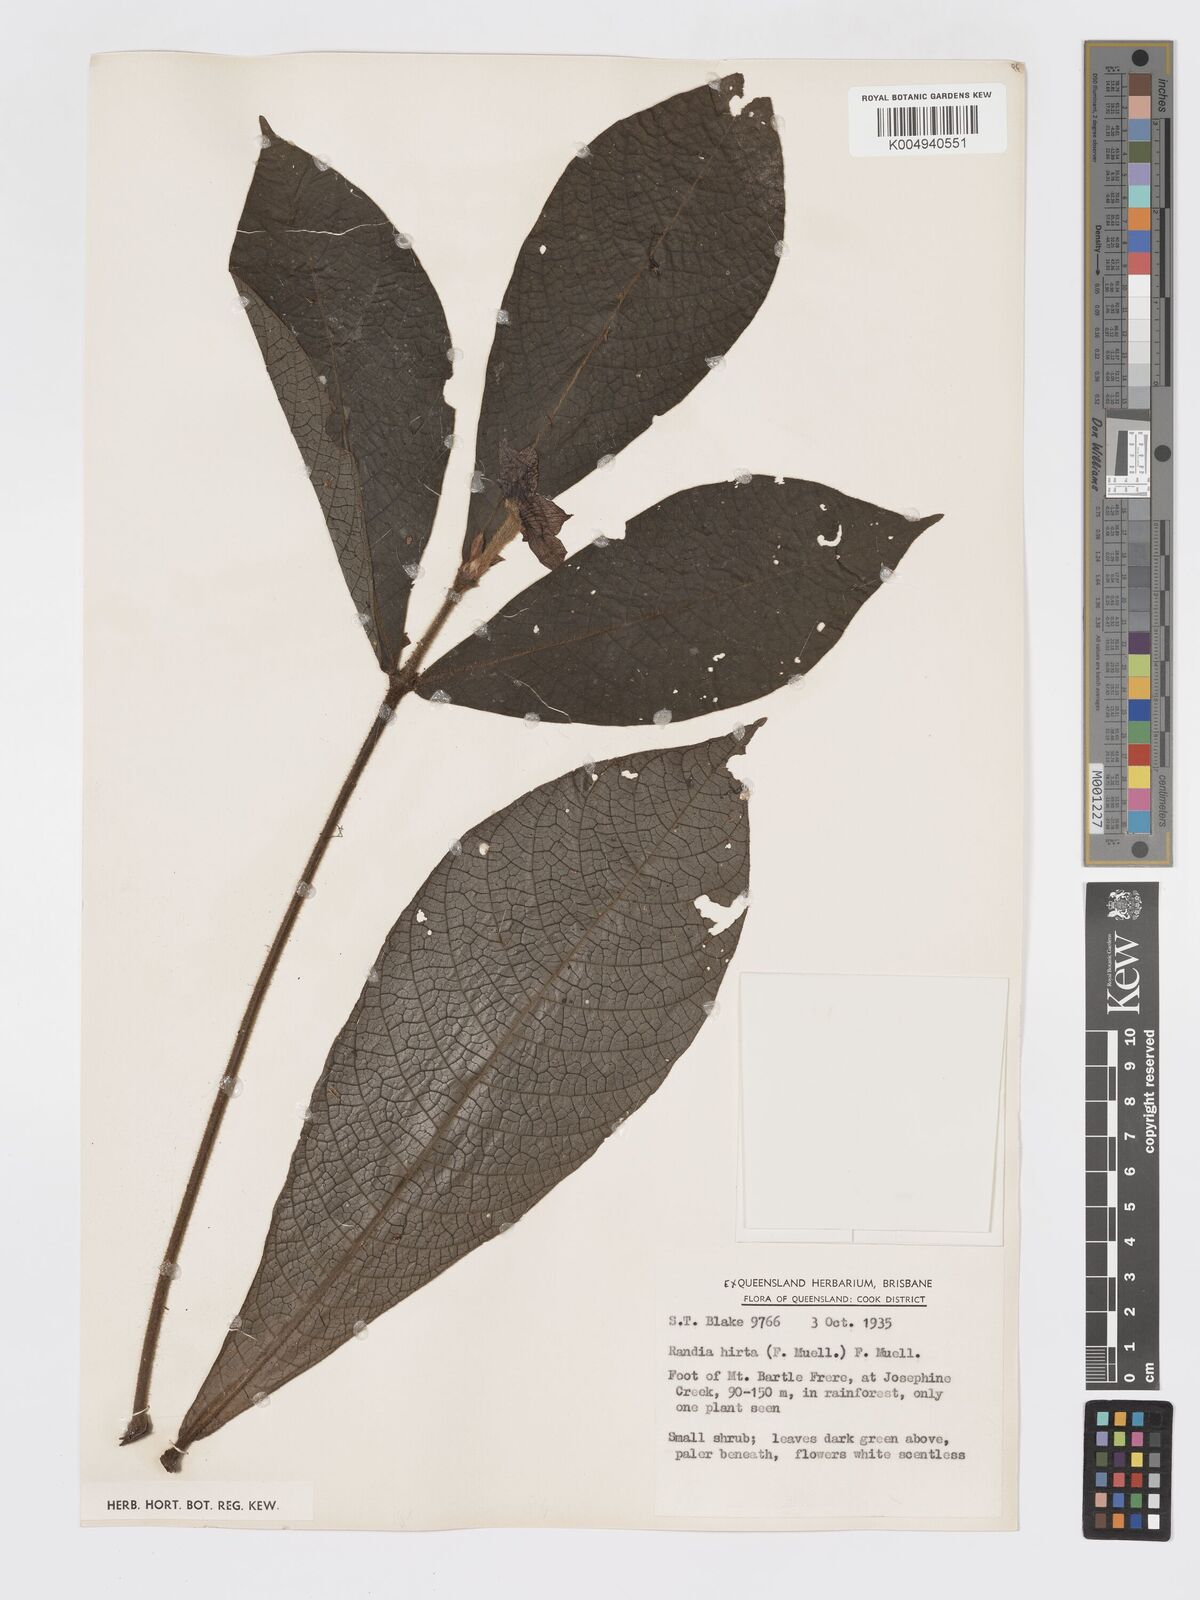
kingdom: Plantae
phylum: Tracheophyta
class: Magnoliopsida
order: Gentianales
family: Rubiaceae
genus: Atractocarpus
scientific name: Atractocarpus hirtus
